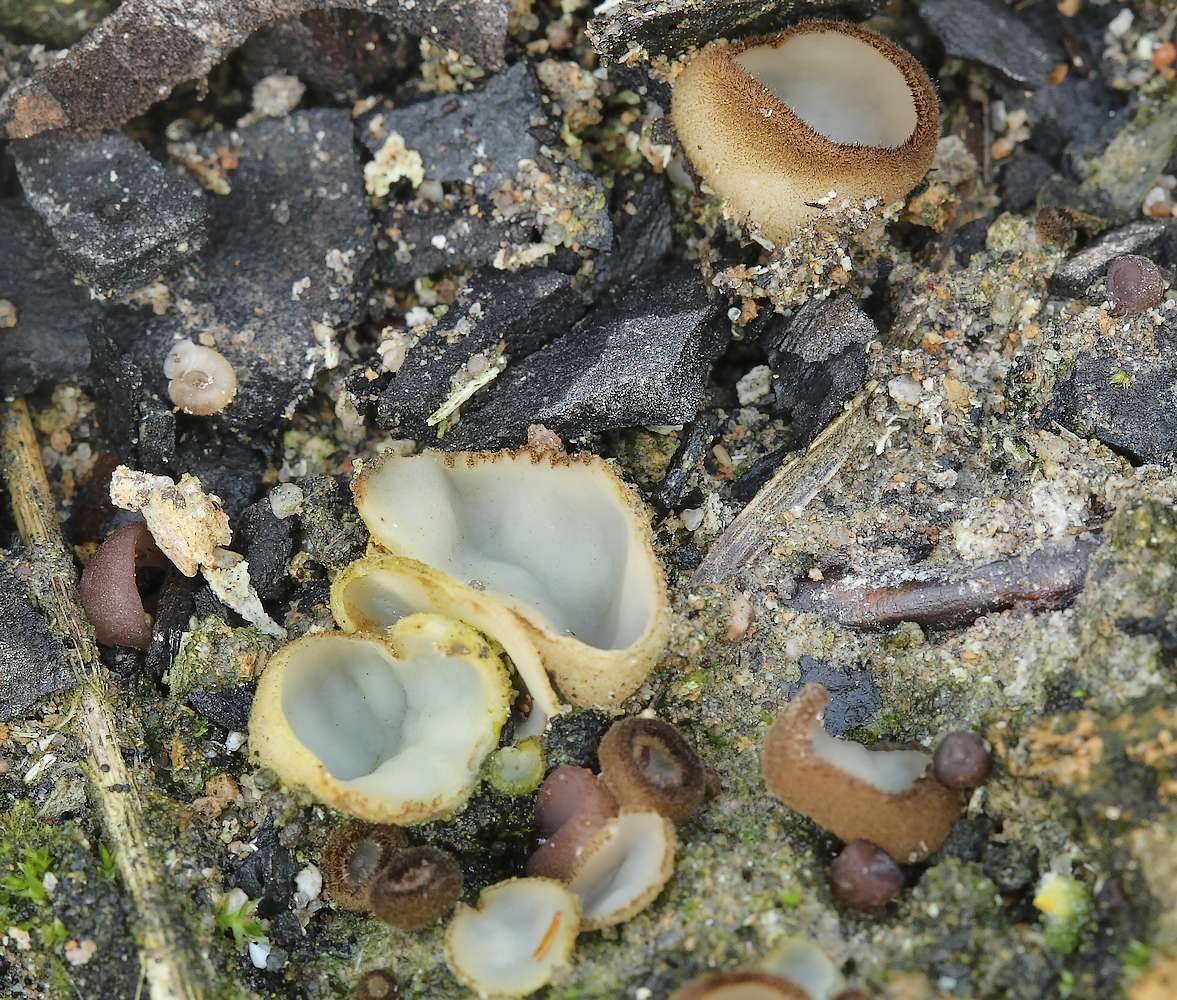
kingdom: Fungi
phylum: Ascomycota
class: Pezizomycetes
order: Pezizales
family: Pyronemataceae
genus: Perilachnea
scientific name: Perilachnea hemisphaerioides
